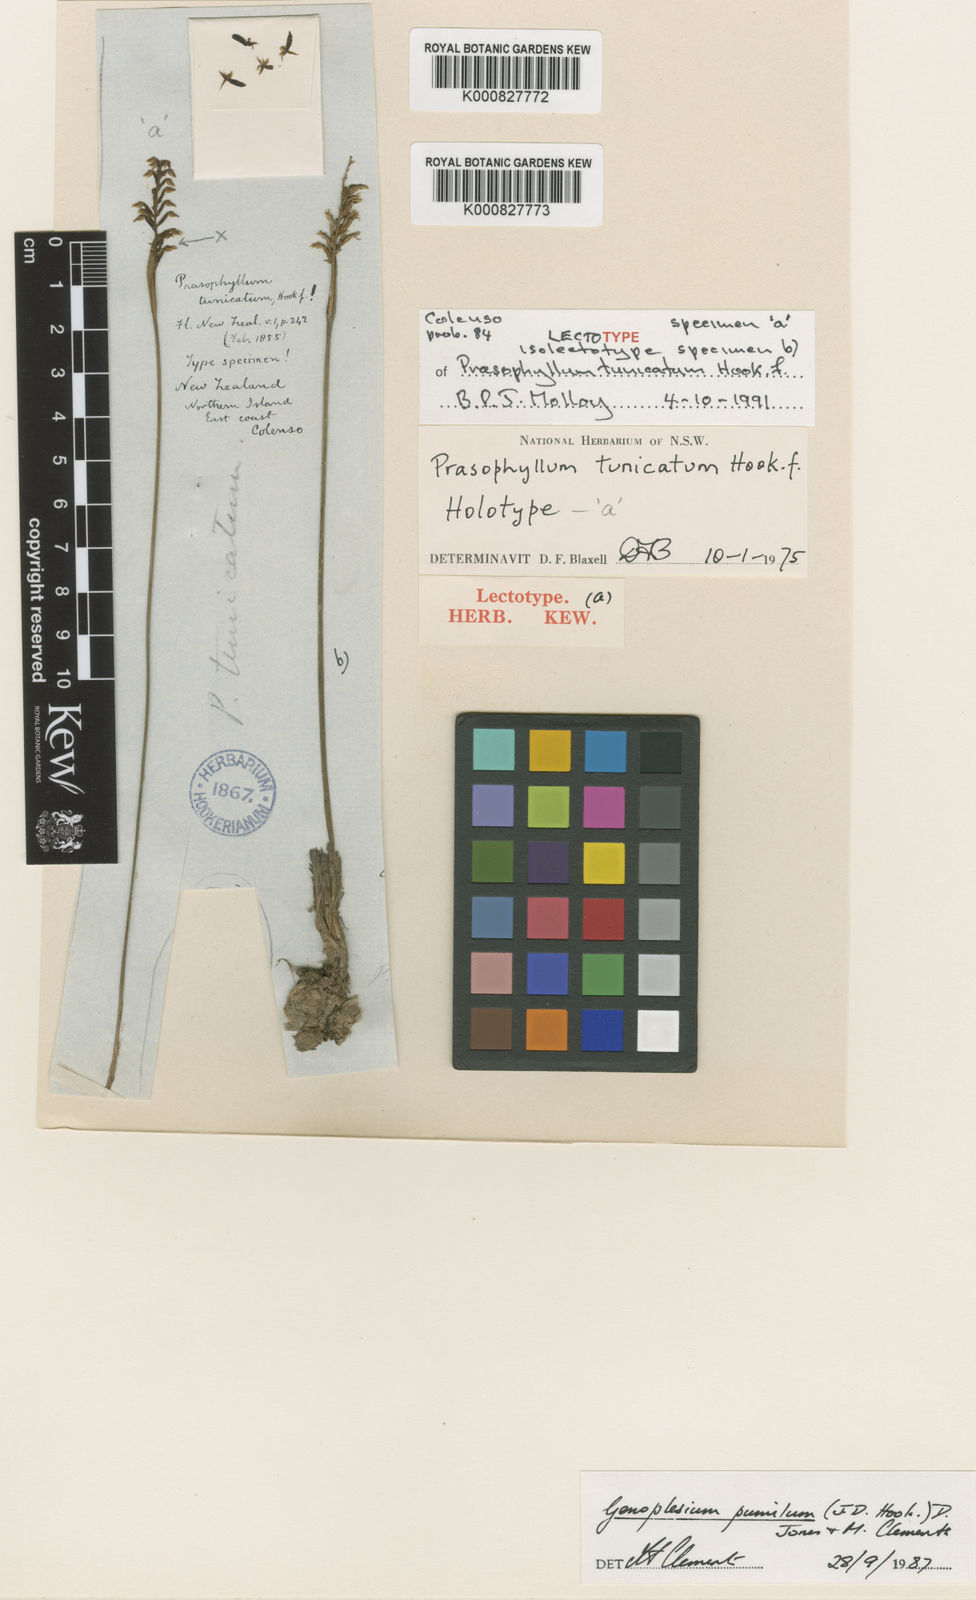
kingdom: Plantae
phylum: Tracheophyta
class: Liliopsida
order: Asparagales
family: Orchidaceae
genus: Genoplesium
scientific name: Genoplesium pumilum
